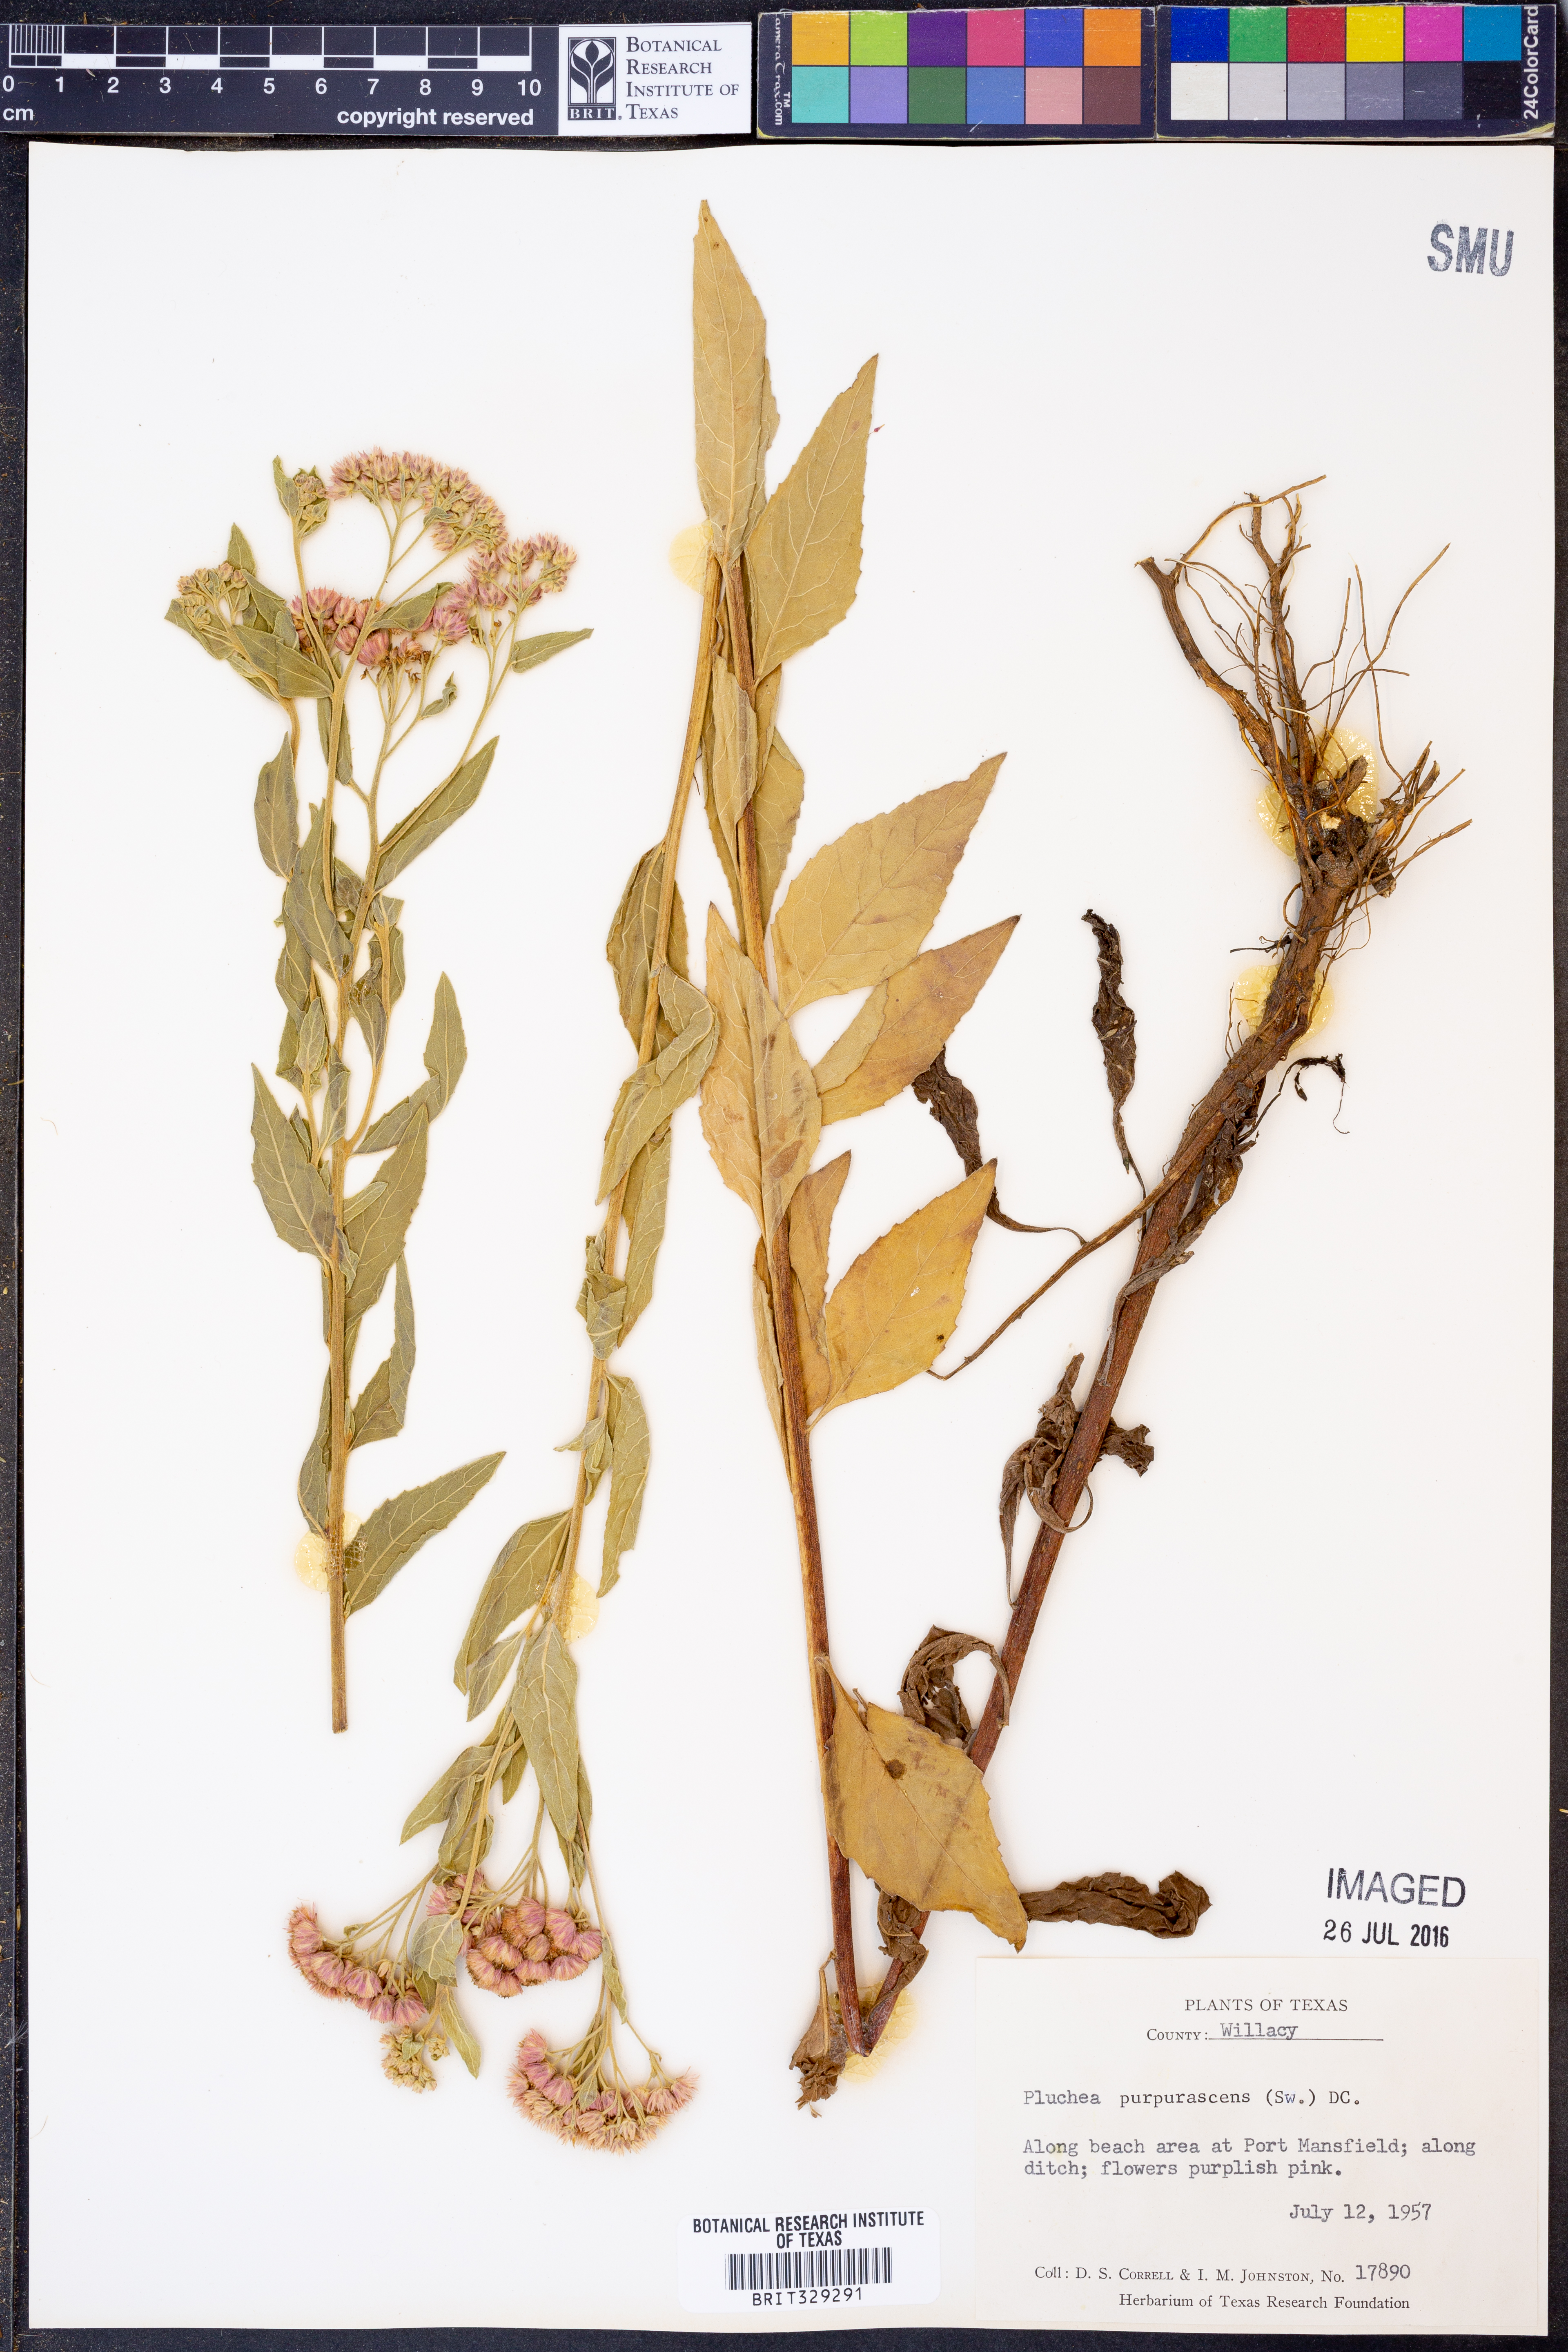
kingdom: Plantae
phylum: Tracheophyta
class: Magnoliopsida
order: Asterales
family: Asteraceae
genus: Pluchea
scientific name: Pluchea odorata
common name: Saltmarsh fleabane
